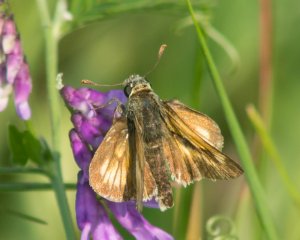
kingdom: Animalia
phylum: Arthropoda
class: Insecta
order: Lepidoptera
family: Hesperiidae
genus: Polites
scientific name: Polites
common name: Long Dash Skipper
